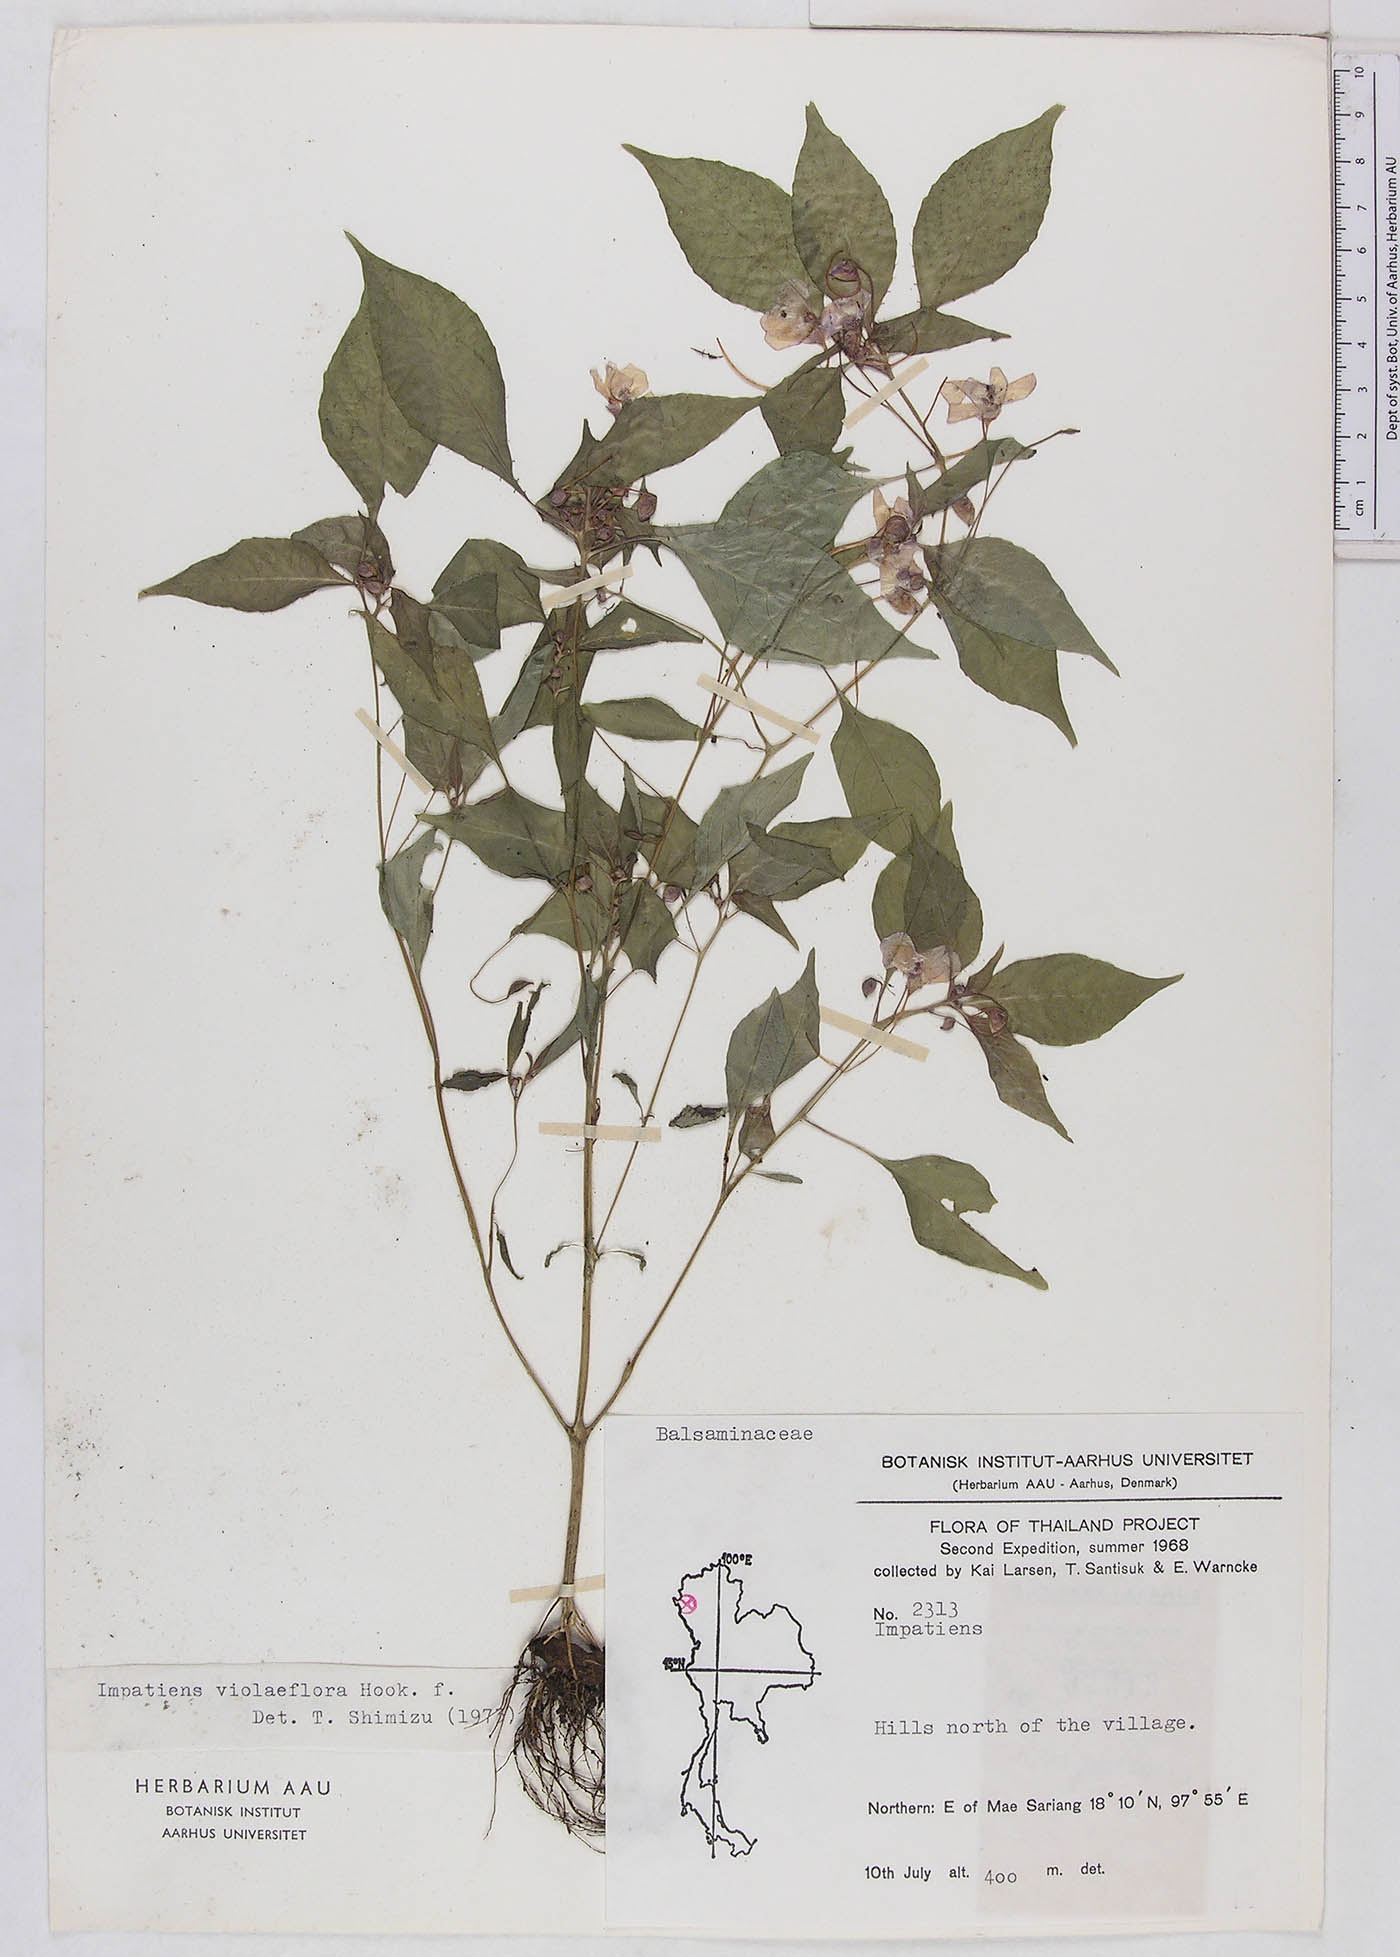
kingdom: Plantae
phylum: Tracheophyta
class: Magnoliopsida
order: Ericales
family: Balsaminaceae
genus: Impatiens
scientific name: Impatiens violiflora
